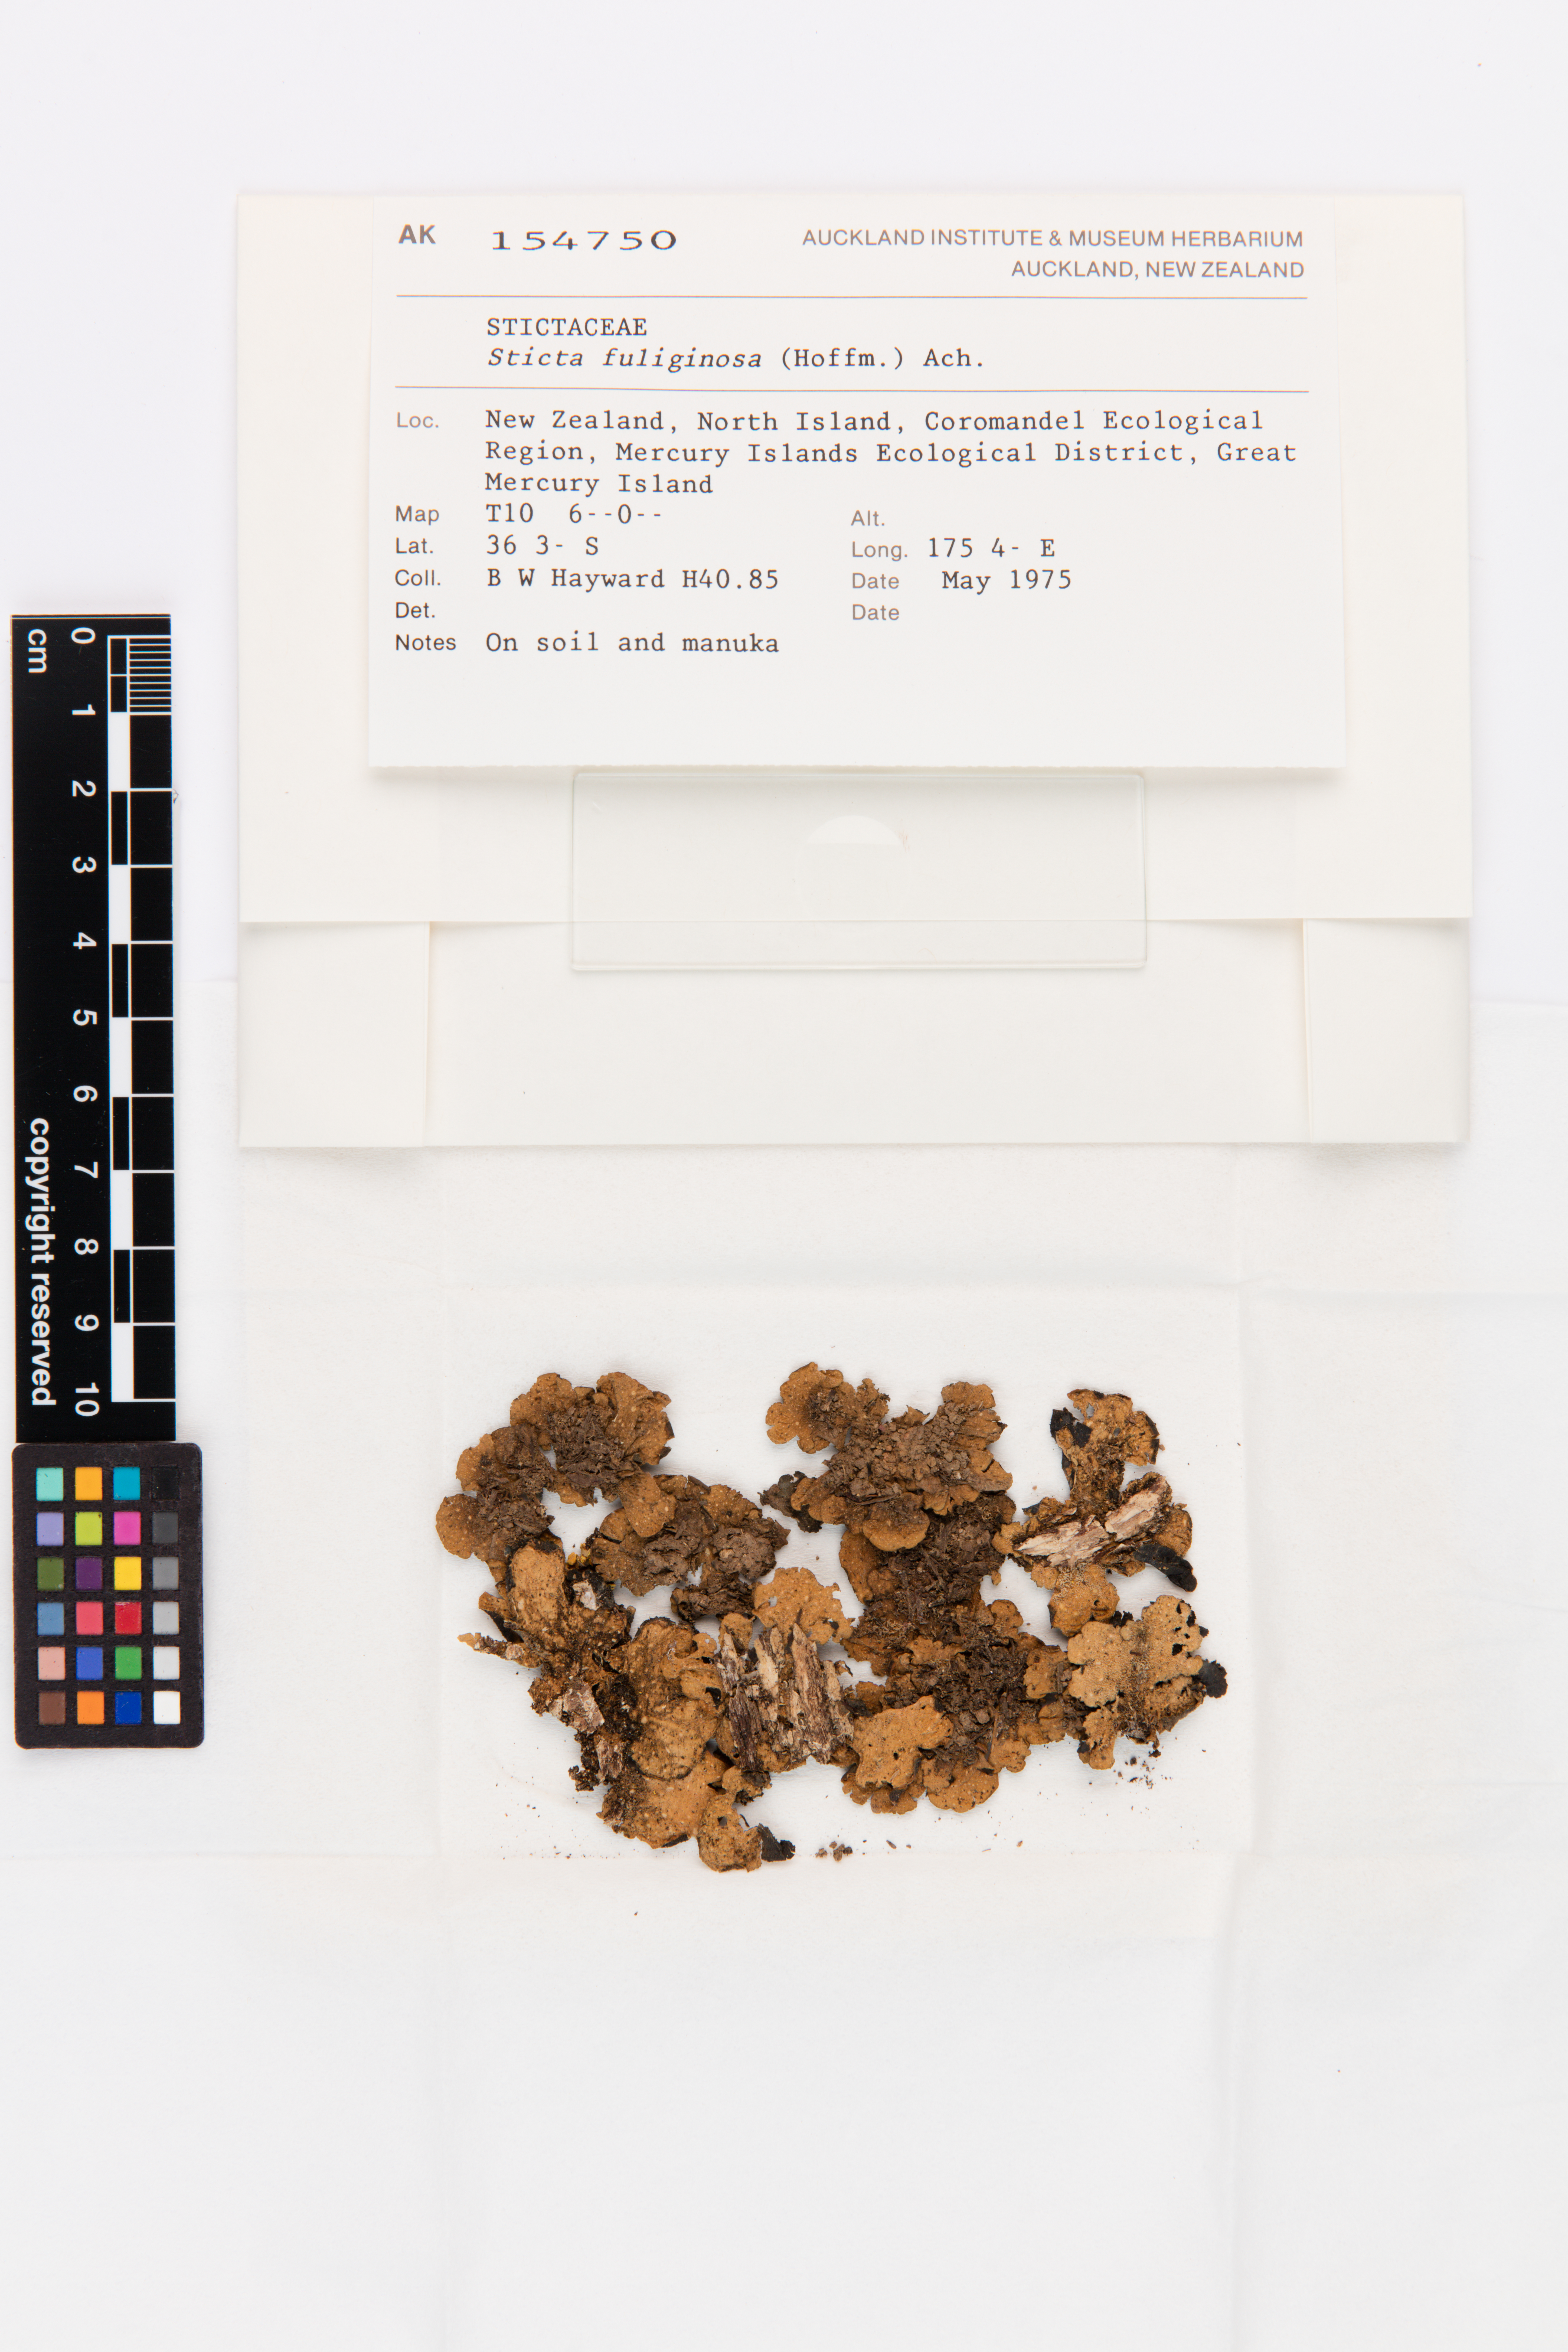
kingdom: Fungi
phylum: Ascomycota
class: Lecanoromycetes
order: Peltigerales
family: Lobariaceae
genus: Sticta
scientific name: Sticta fuliginosa
